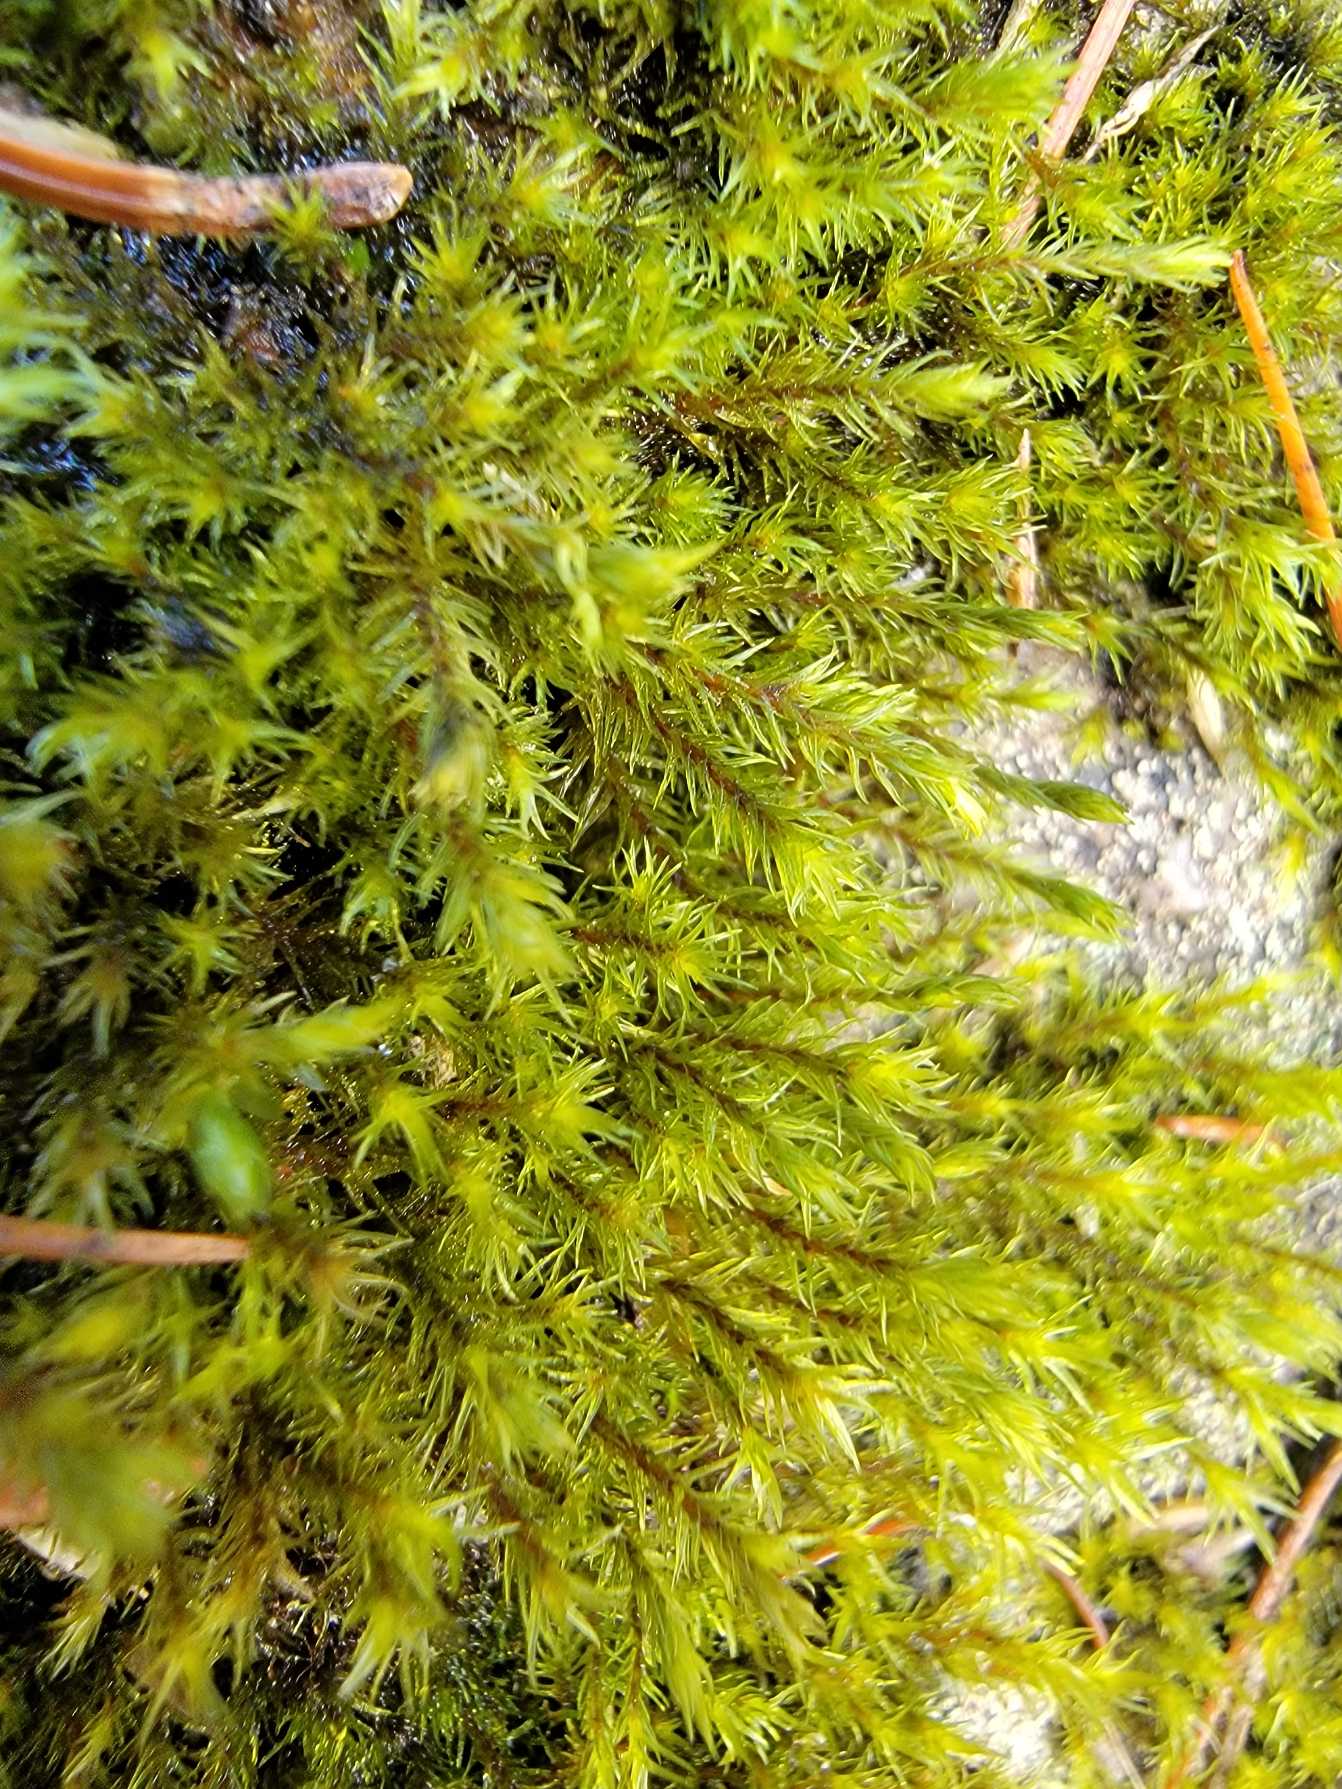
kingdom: Plantae
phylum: Bryophyta
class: Bryopsida
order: Grimmiales
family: Grimmiaceae
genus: Bucklandiella
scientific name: Bucklandiella obtusa
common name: Kyst-børstemos
